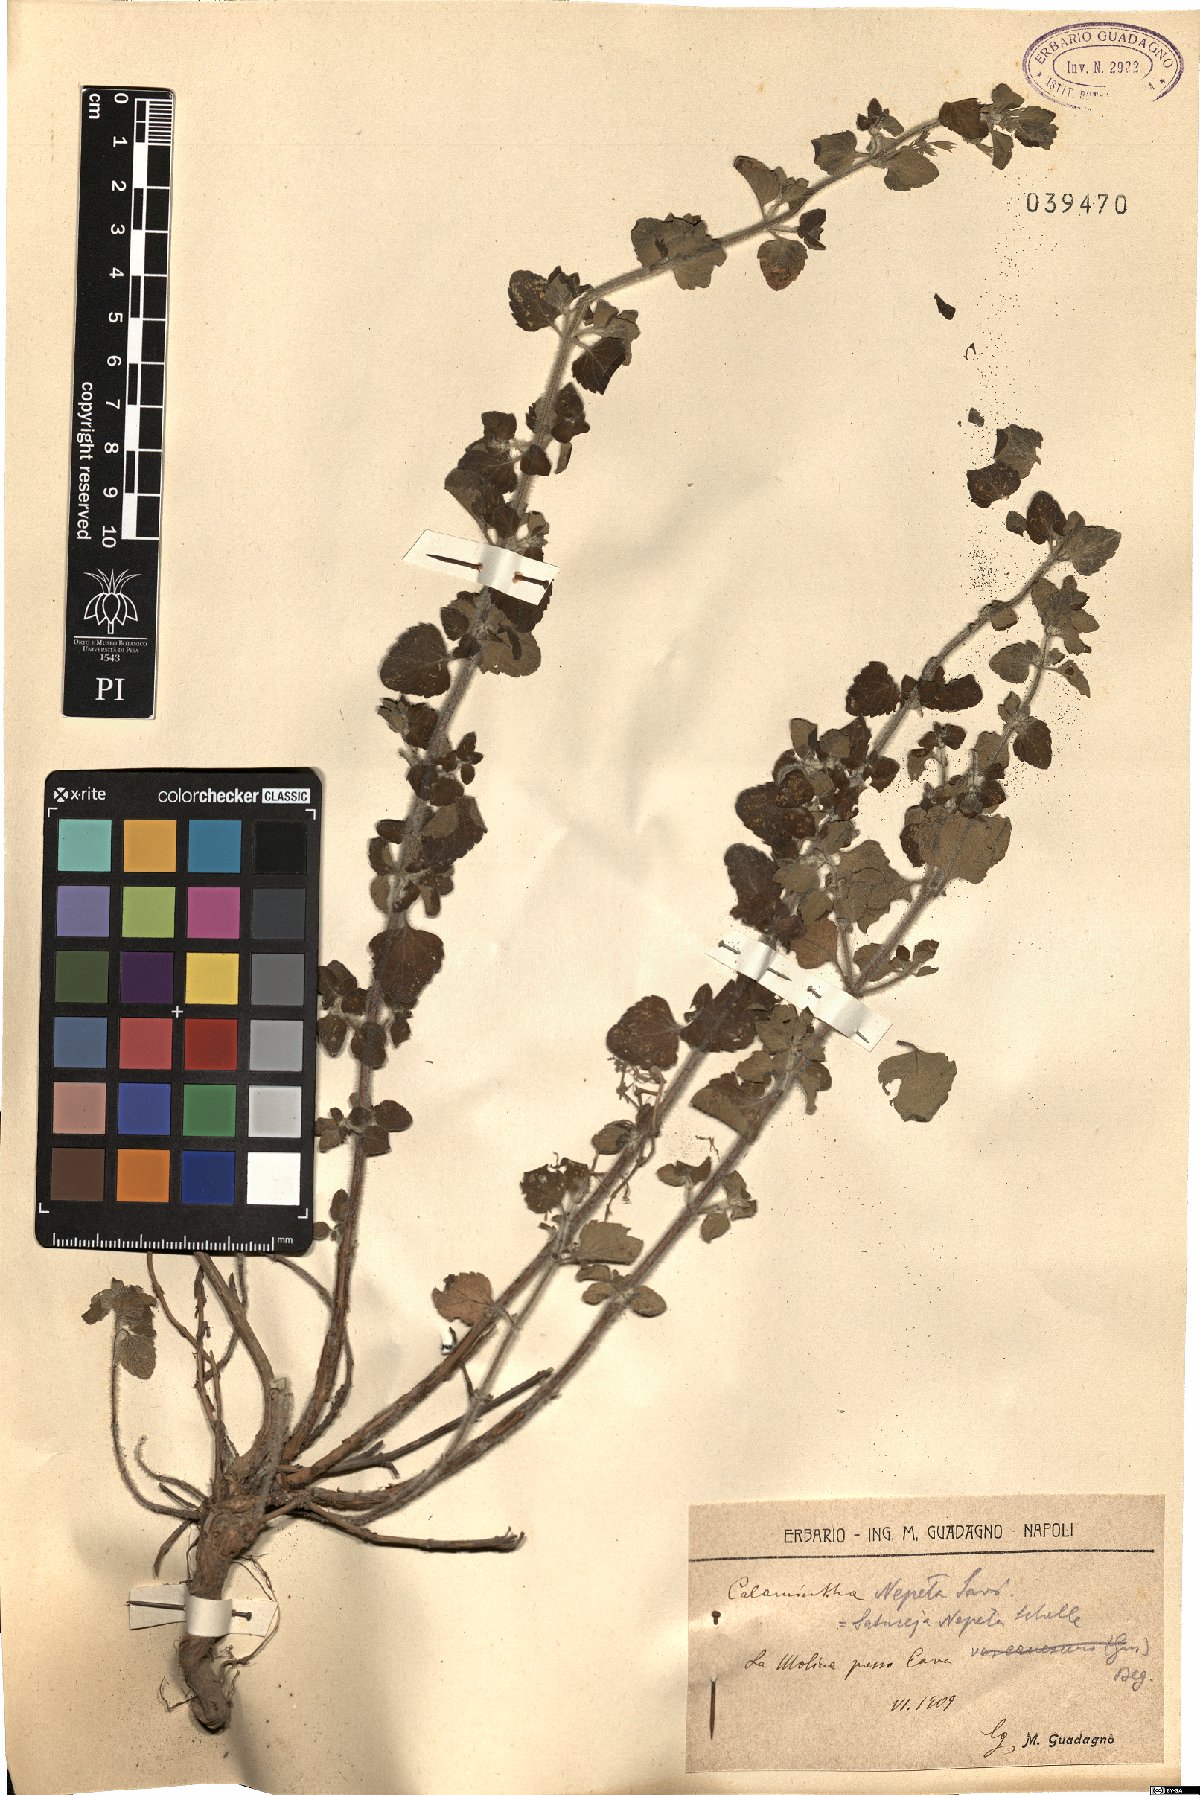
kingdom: Plantae
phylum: Tracheophyta
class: Magnoliopsida
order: Lamiales
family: Lamiaceae
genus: Clinopodium
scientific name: Clinopodium nepeta
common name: Lesser calamint
